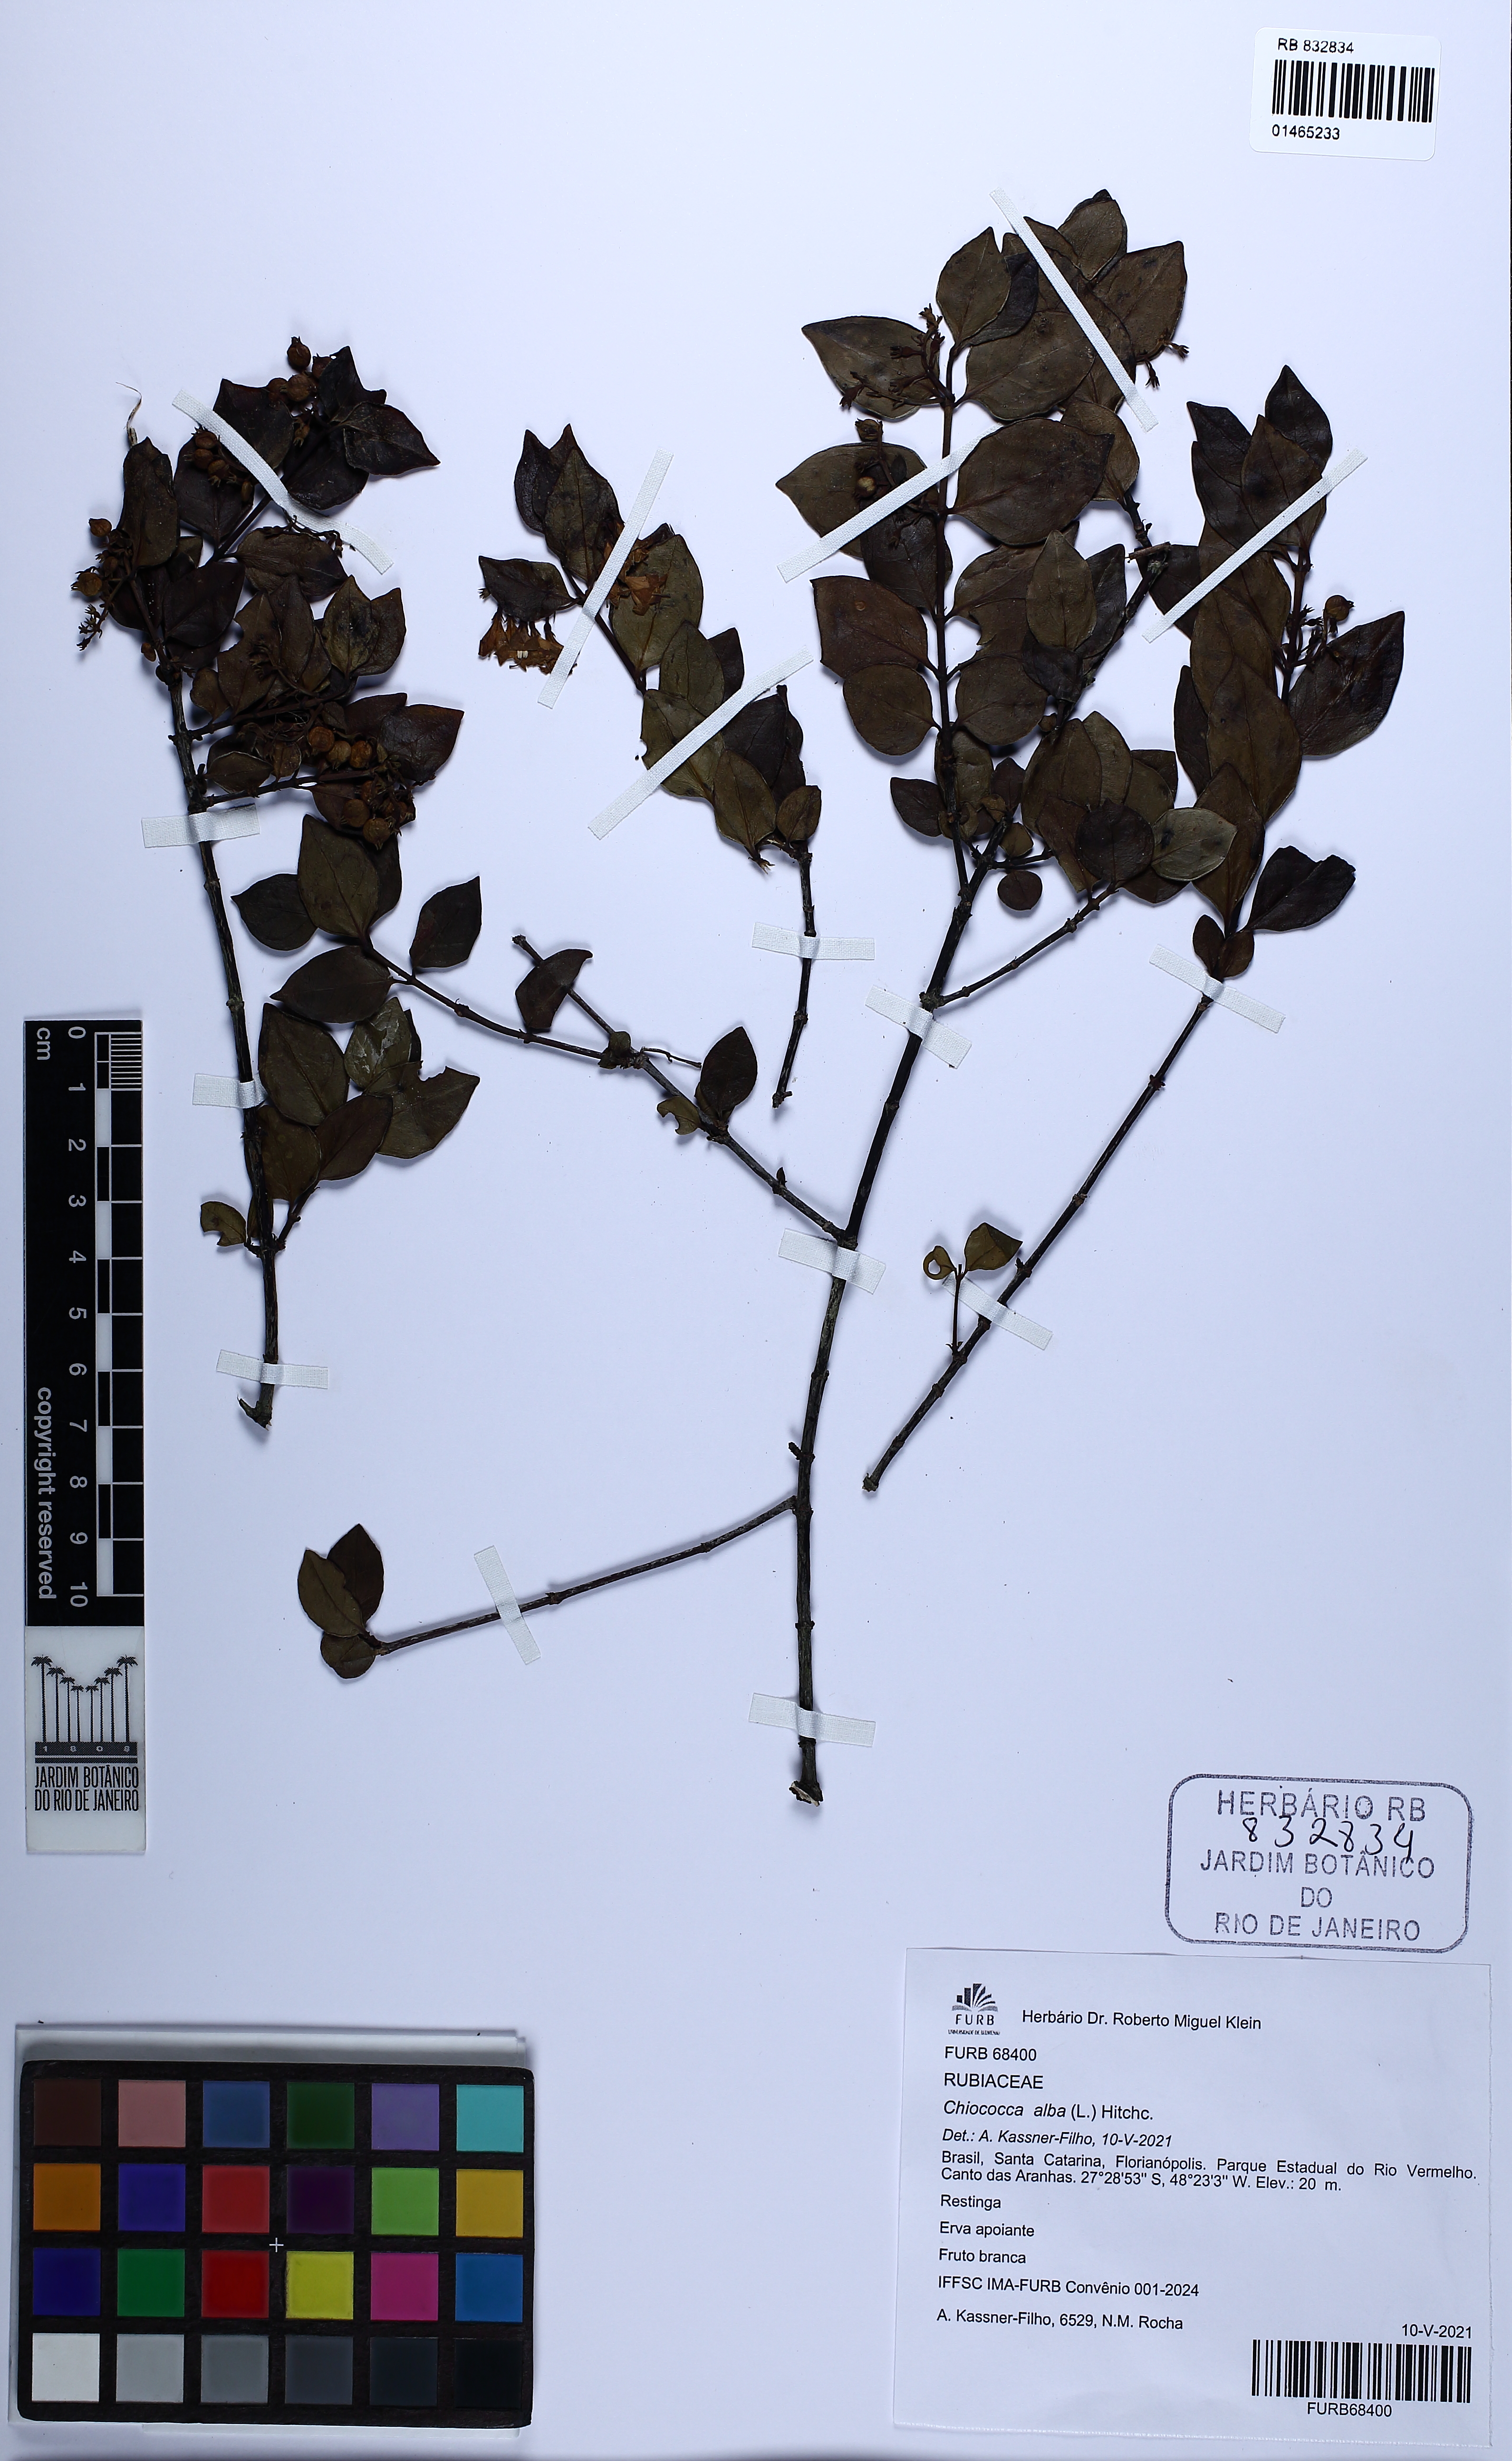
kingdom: Plantae
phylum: Tracheophyta
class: Magnoliopsida
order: Gentianales
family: Rubiaceae
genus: Chiococca
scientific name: Chiococca alba
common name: Snowberry
